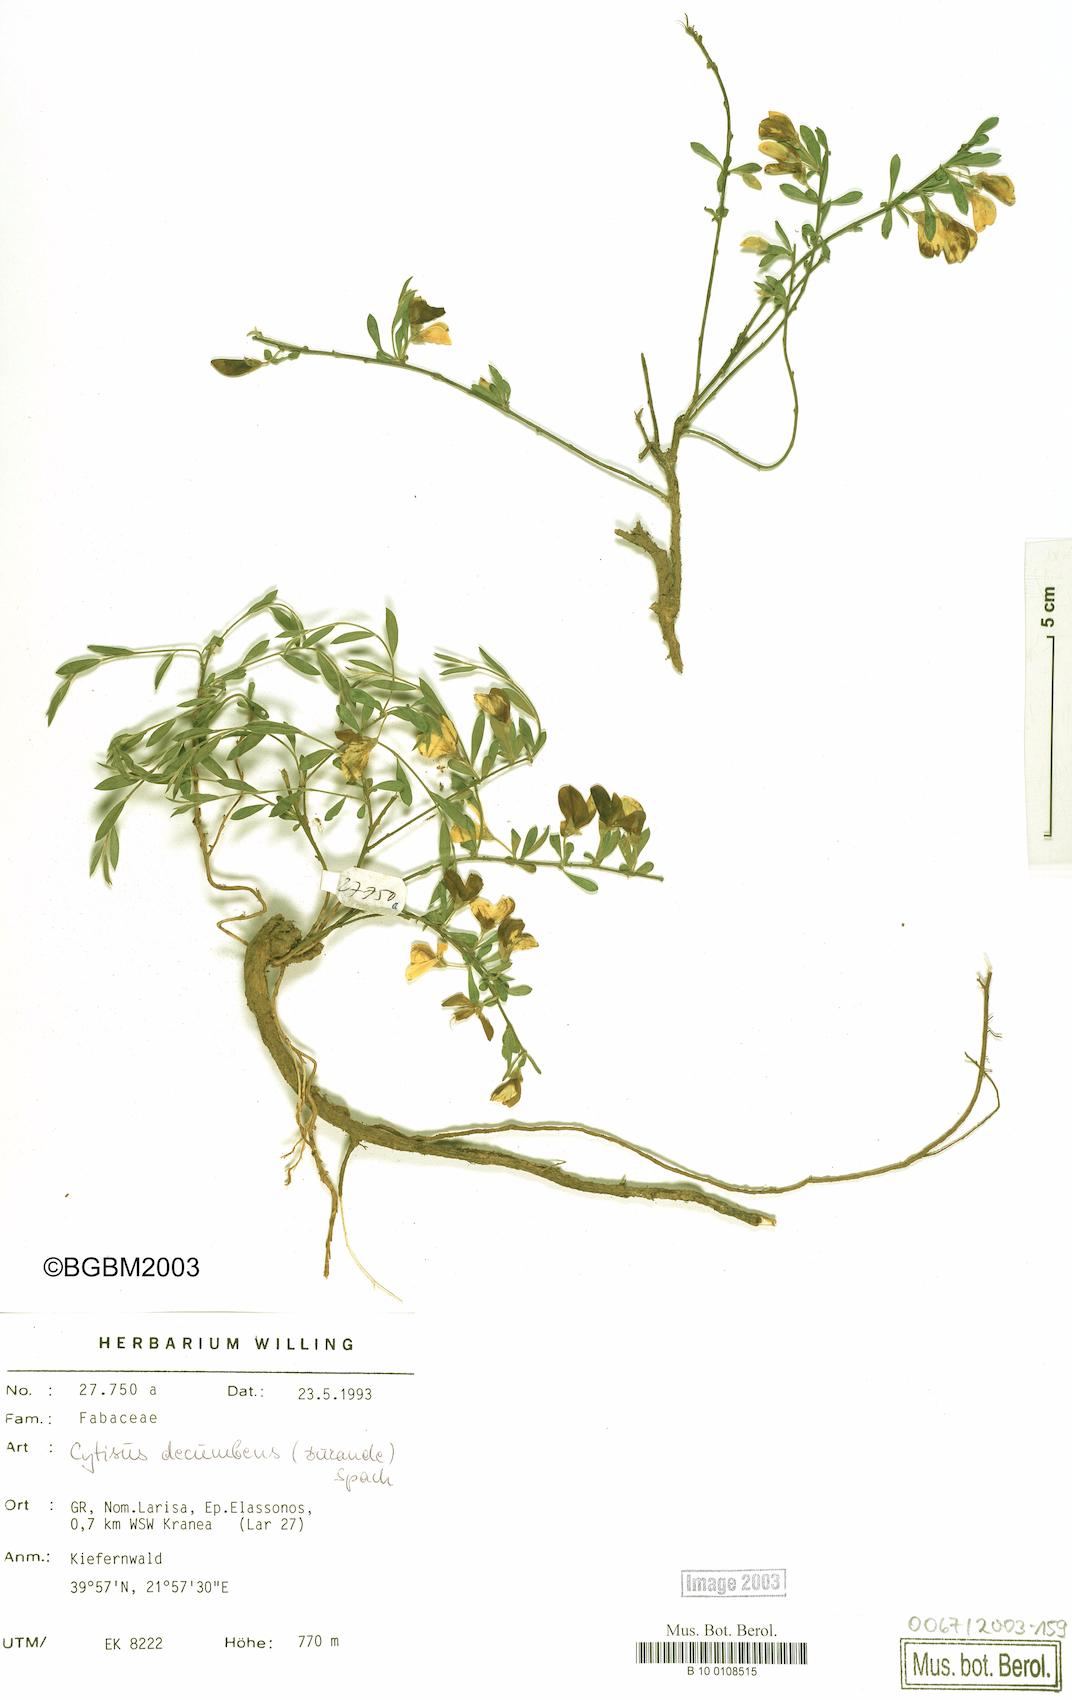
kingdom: Plantae
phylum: Tracheophyta
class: Magnoliopsida
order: Fabales
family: Fabaceae
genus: Chamaecytisus
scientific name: Chamaecytisus eriocarpus
